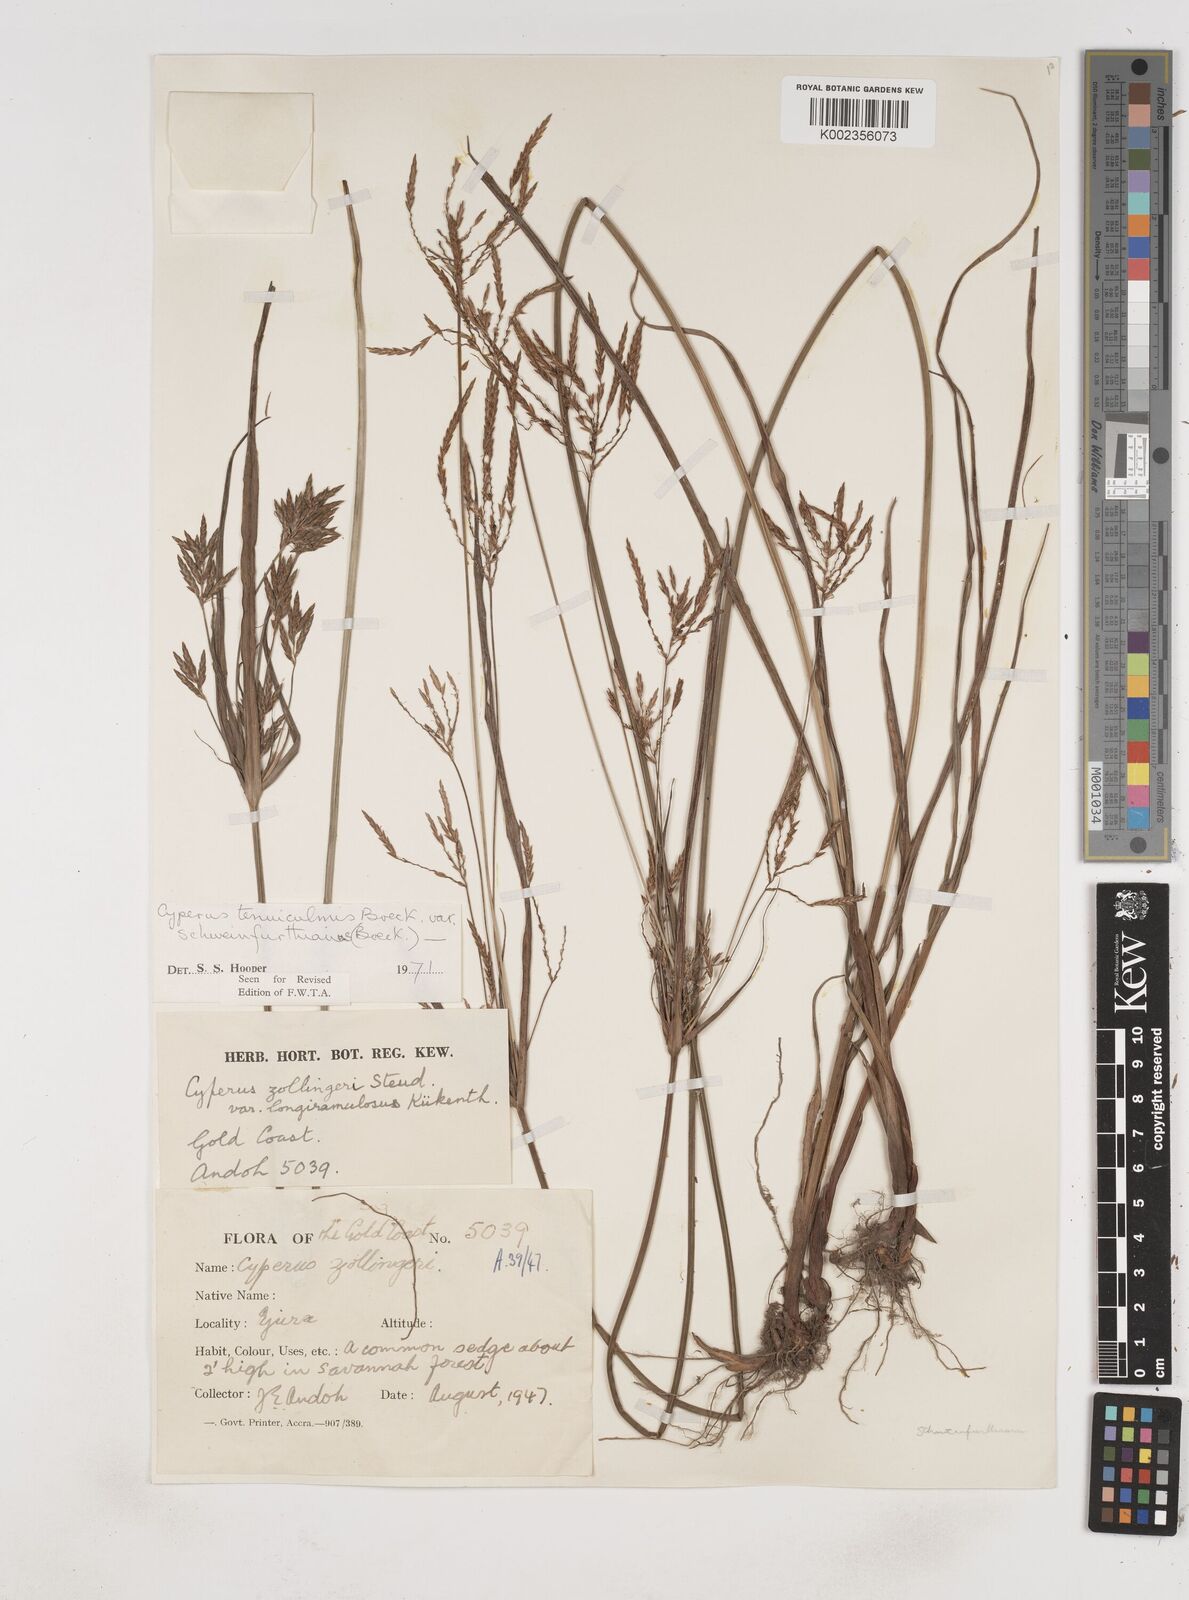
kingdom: Plantae
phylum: Tracheophyta
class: Liliopsida
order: Poales
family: Cyperaceae
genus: Cyperus
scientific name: Cyperus tenuiculmis
